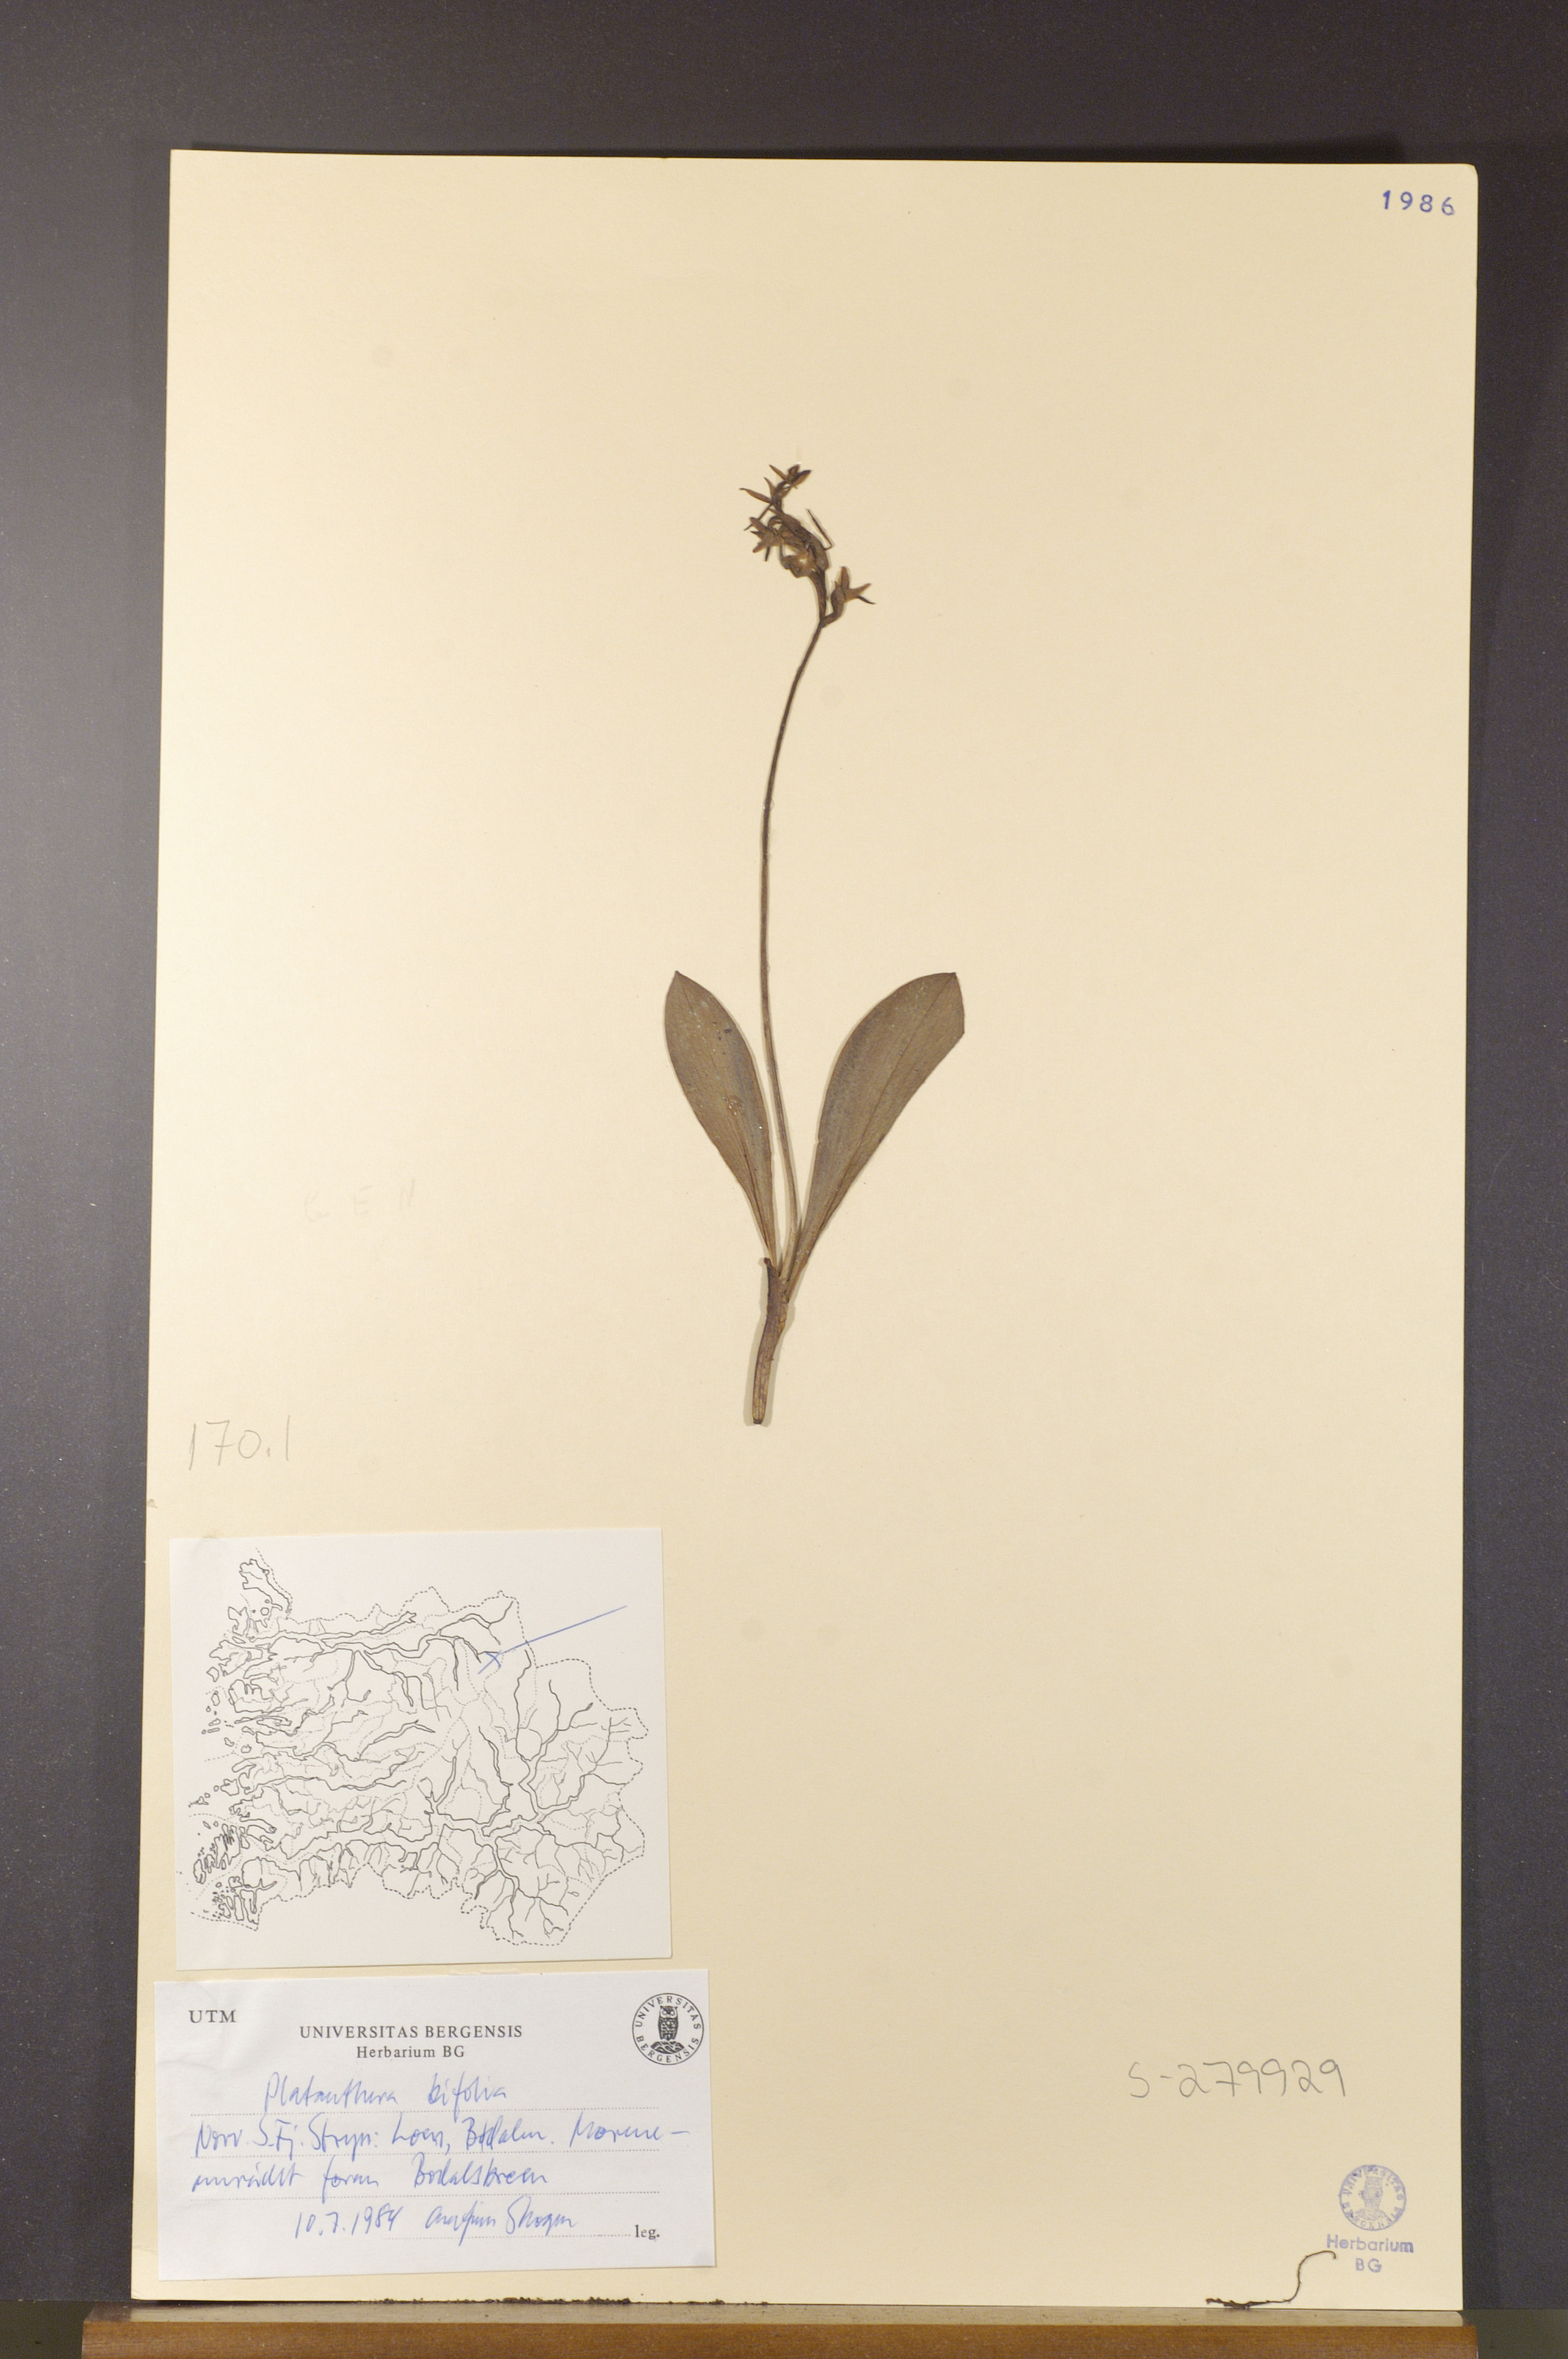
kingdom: Plantae
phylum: Tracheophyta
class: Liliopsida
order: Asparagales
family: Orchidaceae
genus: Platanthera
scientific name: Platanthera bifolia
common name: Lesser butterfly-orchid
